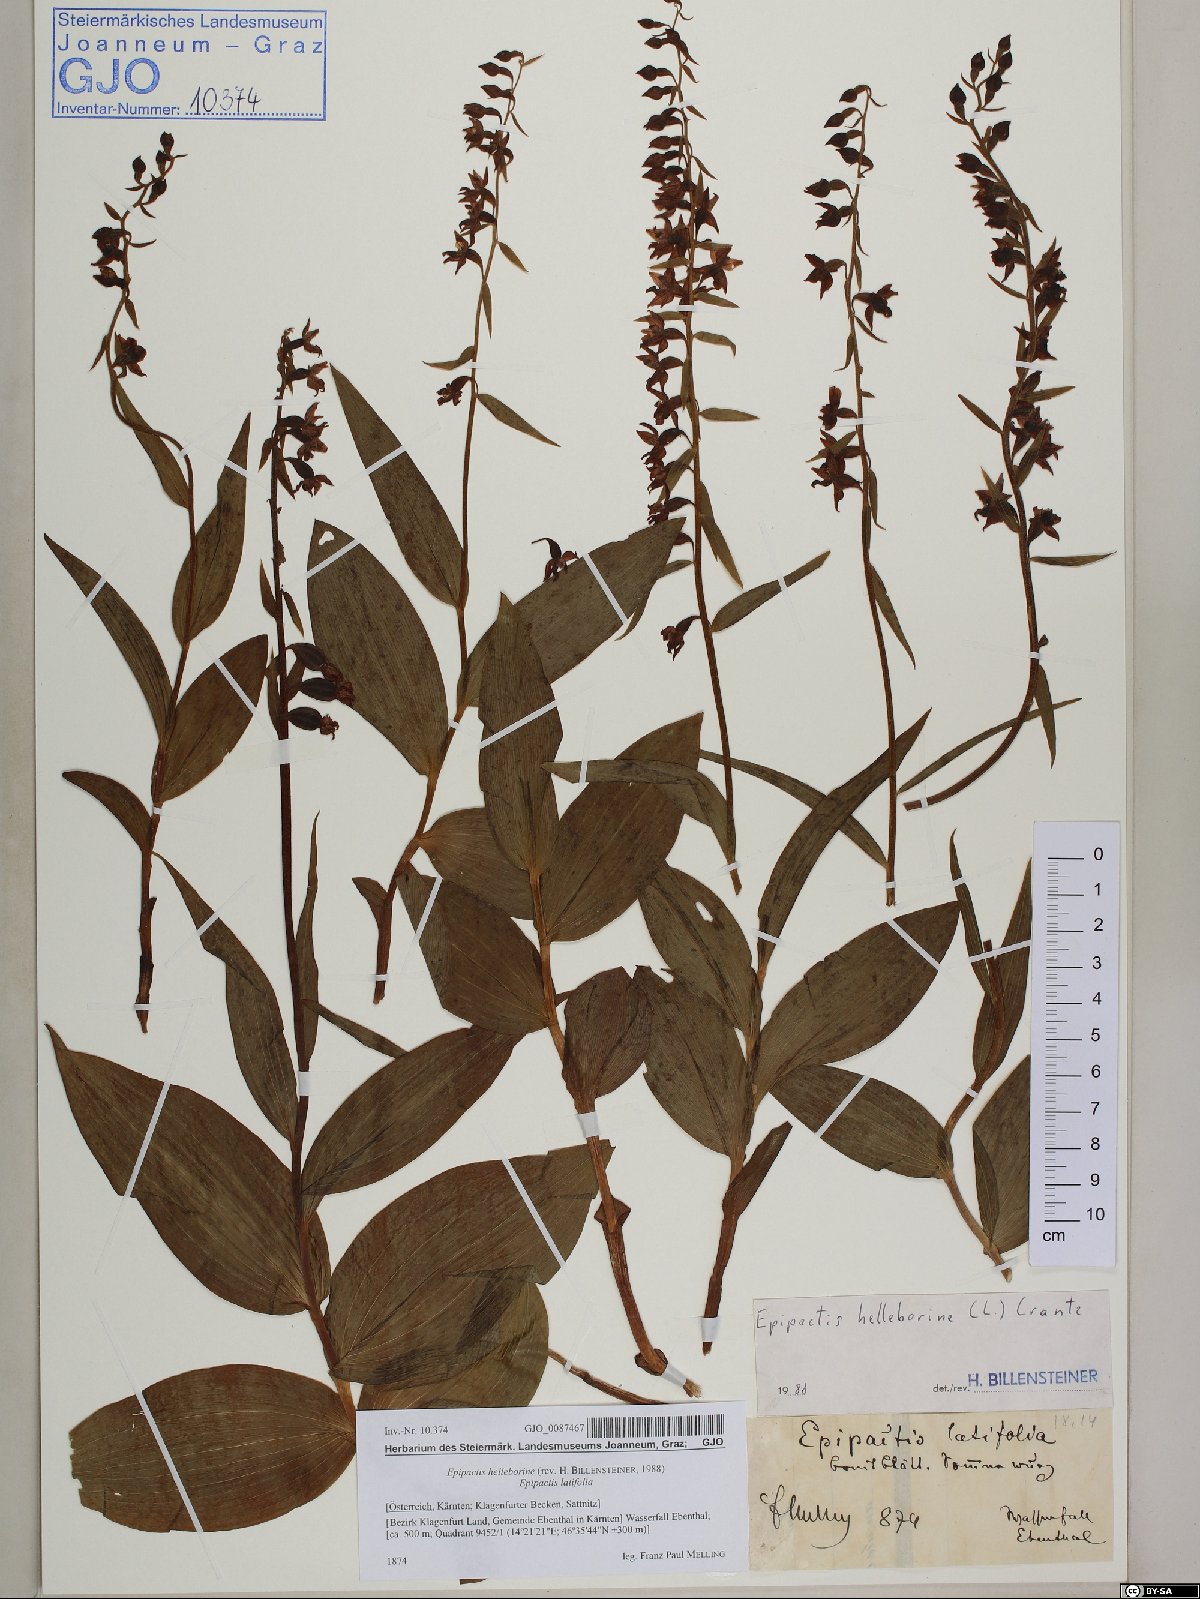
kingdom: Plantae
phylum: Tracheophyta
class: Liliopsida
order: Asparagales
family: Orchidaceae
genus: Epipactis
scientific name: Epipactis helleborine
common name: Broad-leaved helleborine
